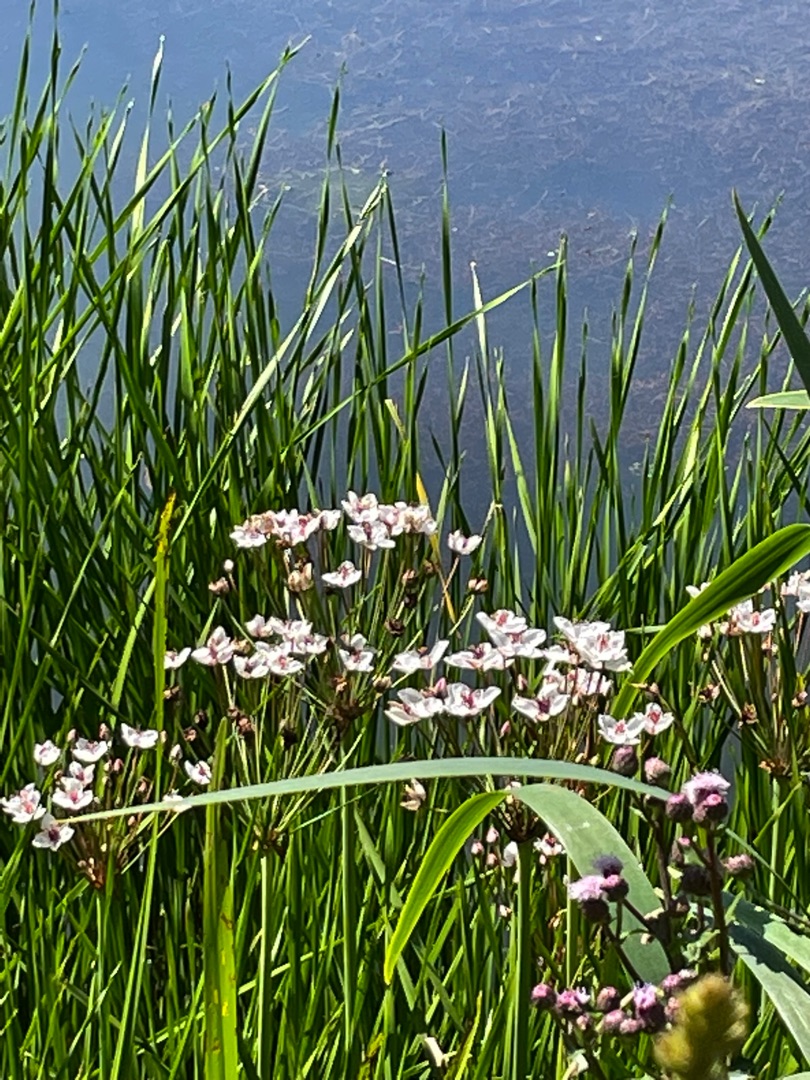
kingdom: Plantae
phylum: Tracheophyta
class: Liliopsida
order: Alismatales
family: Butomaceae
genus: Butomus
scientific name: Butomus umbellatus
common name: Brudelys
